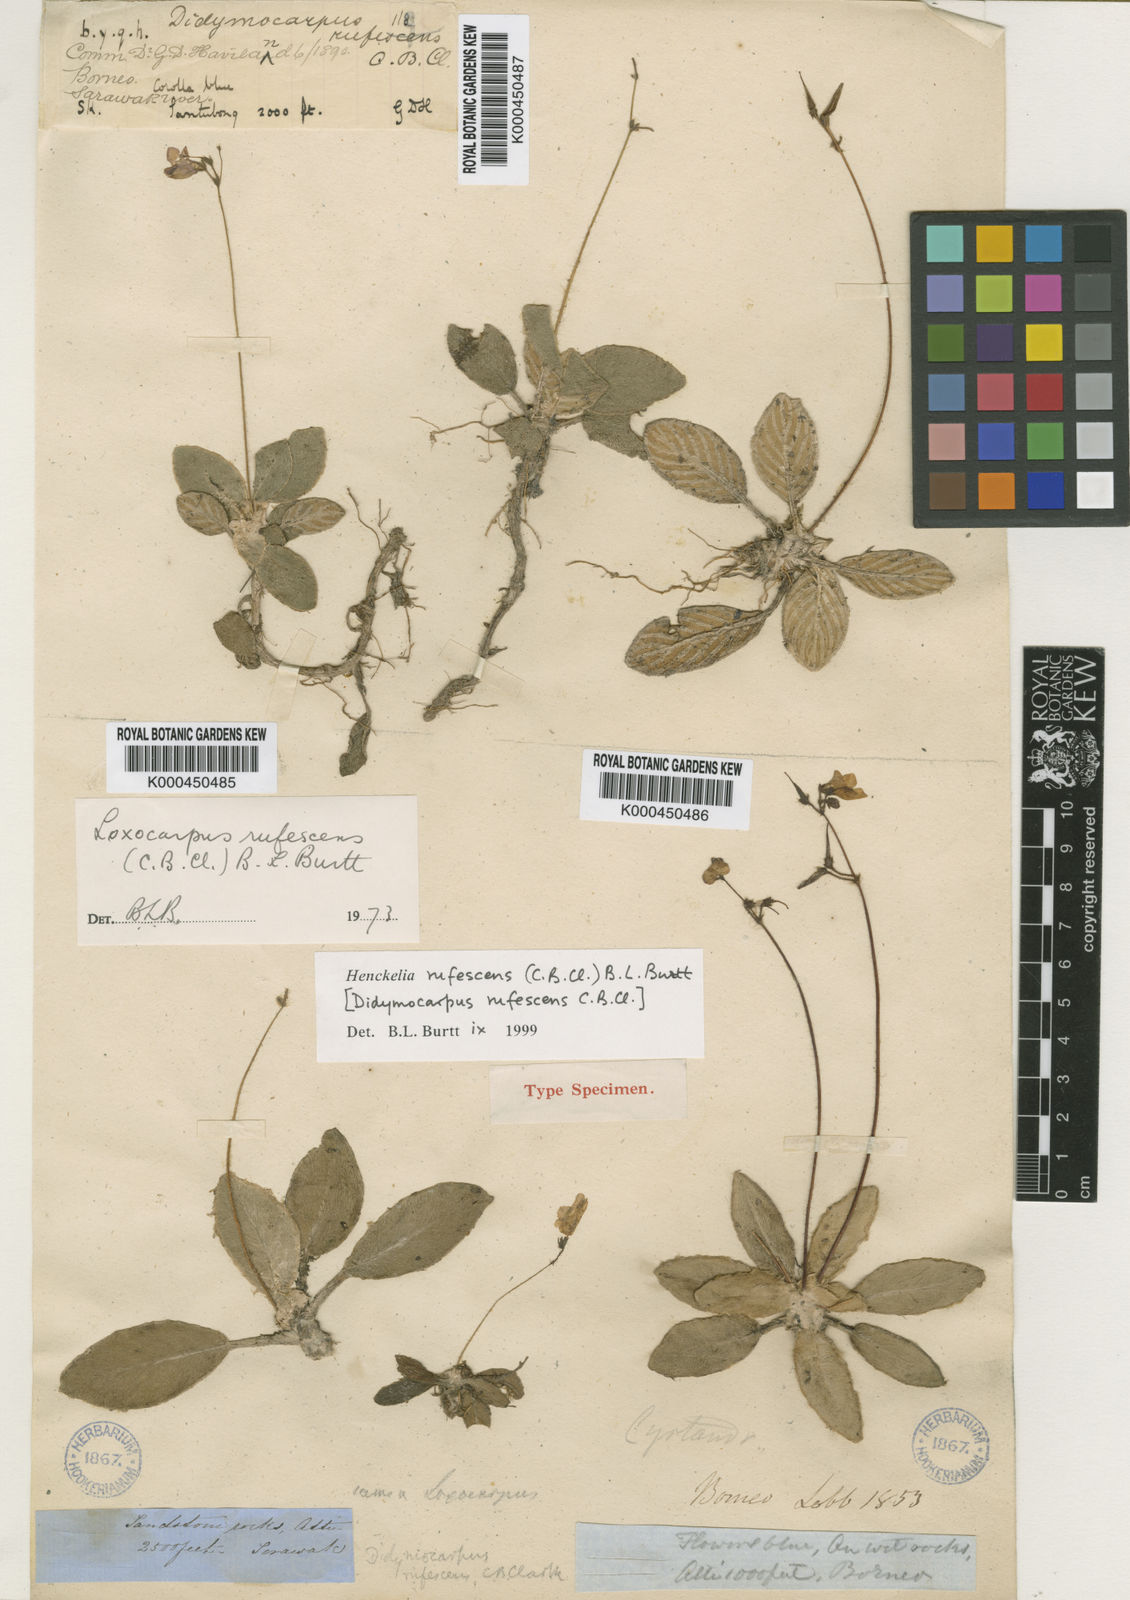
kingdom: Plantae
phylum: Tracheophyta
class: Magnoliopsida
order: Lamiales
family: Gesneriaceae
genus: Loxocarpus
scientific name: Loxocarpus rufescens
